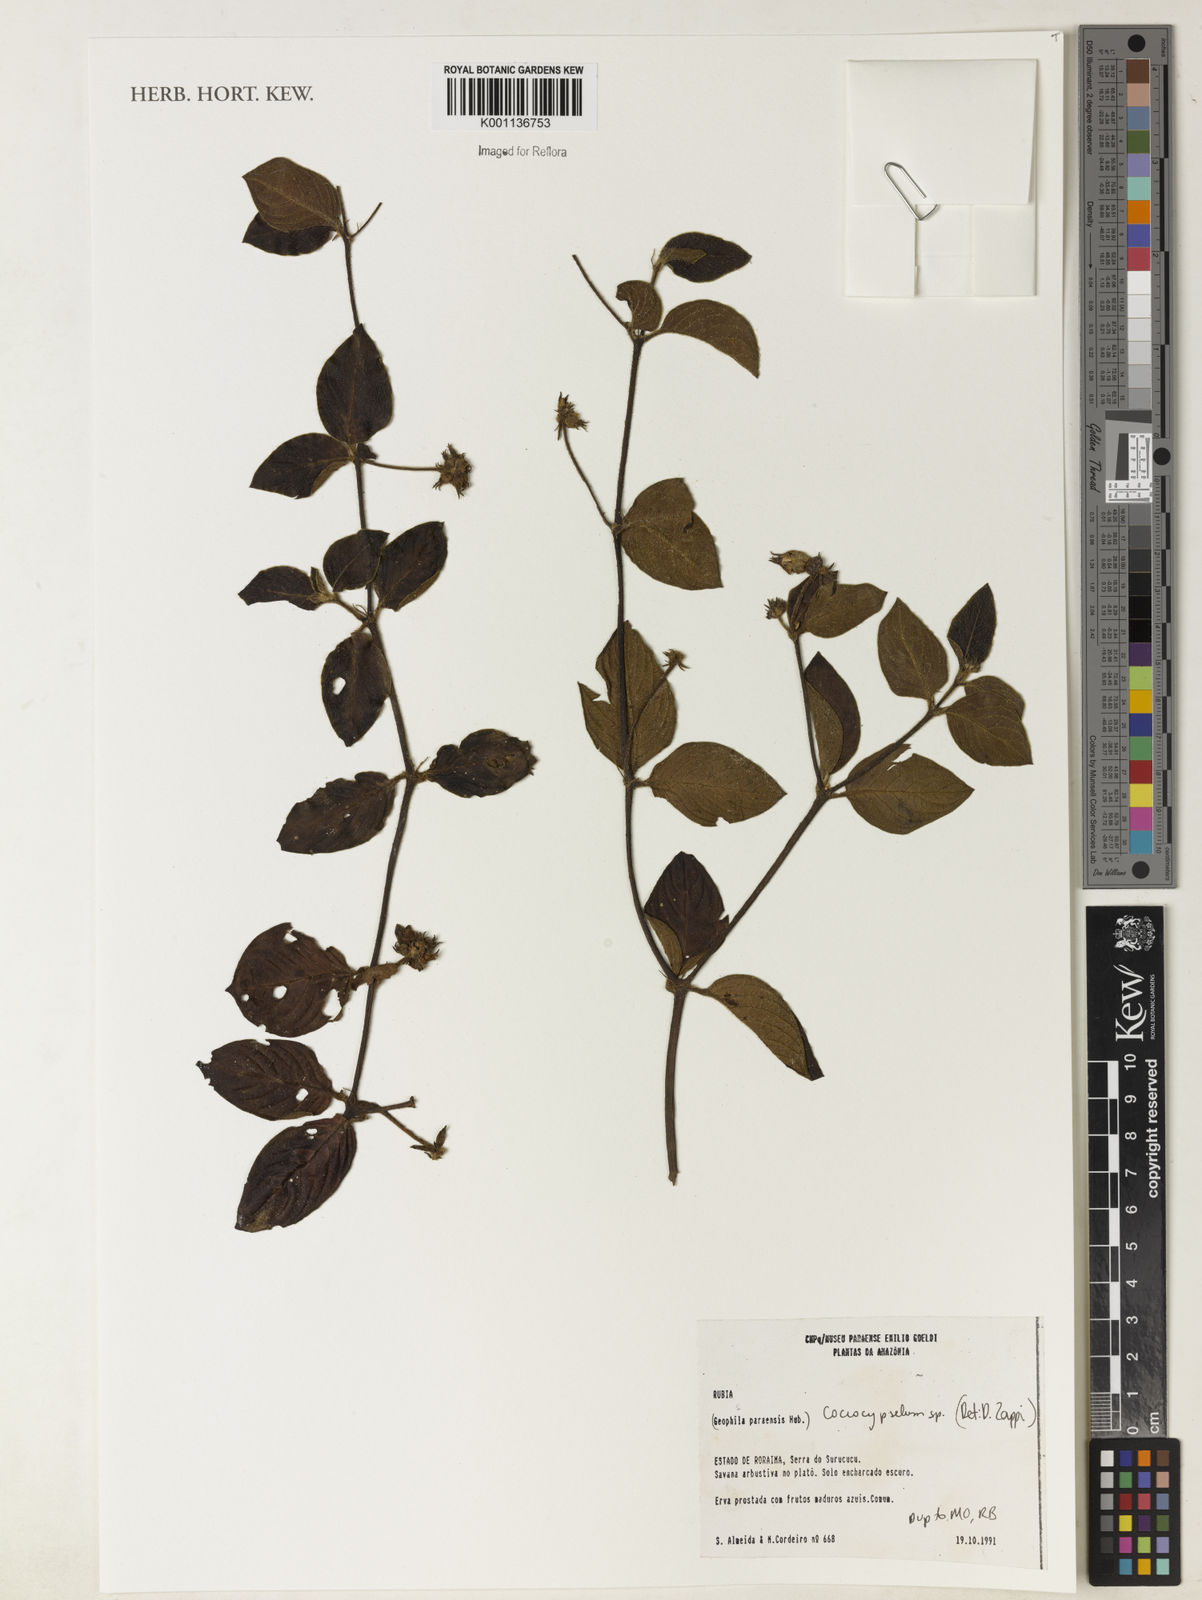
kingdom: Plantae
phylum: Tracheophyta
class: Magnoliopsida
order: Gentianales
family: Rubiaceae
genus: Coccocypselum
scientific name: Coccocypselum
